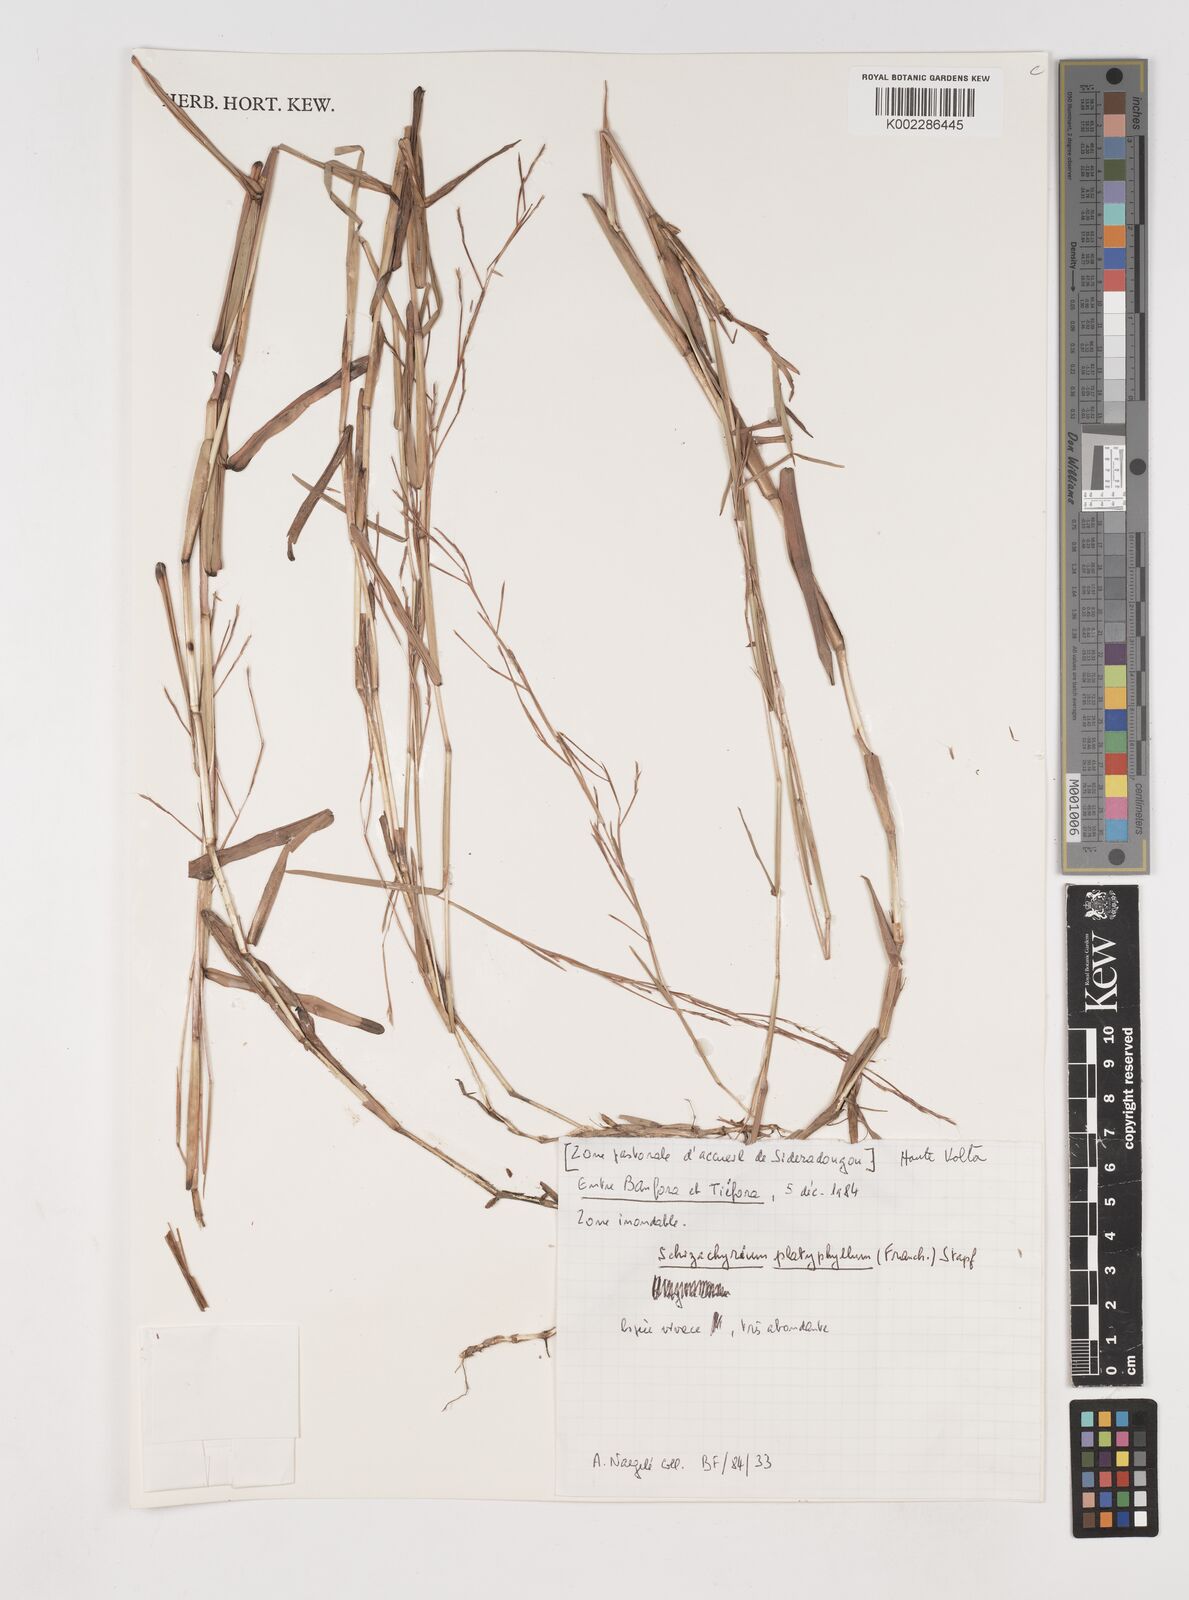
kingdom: Plantae
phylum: Tracheophyta
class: Liliopsida
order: Poales
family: Poaceae
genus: Schizachyrium
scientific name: Schizachyrium platyphyllum
